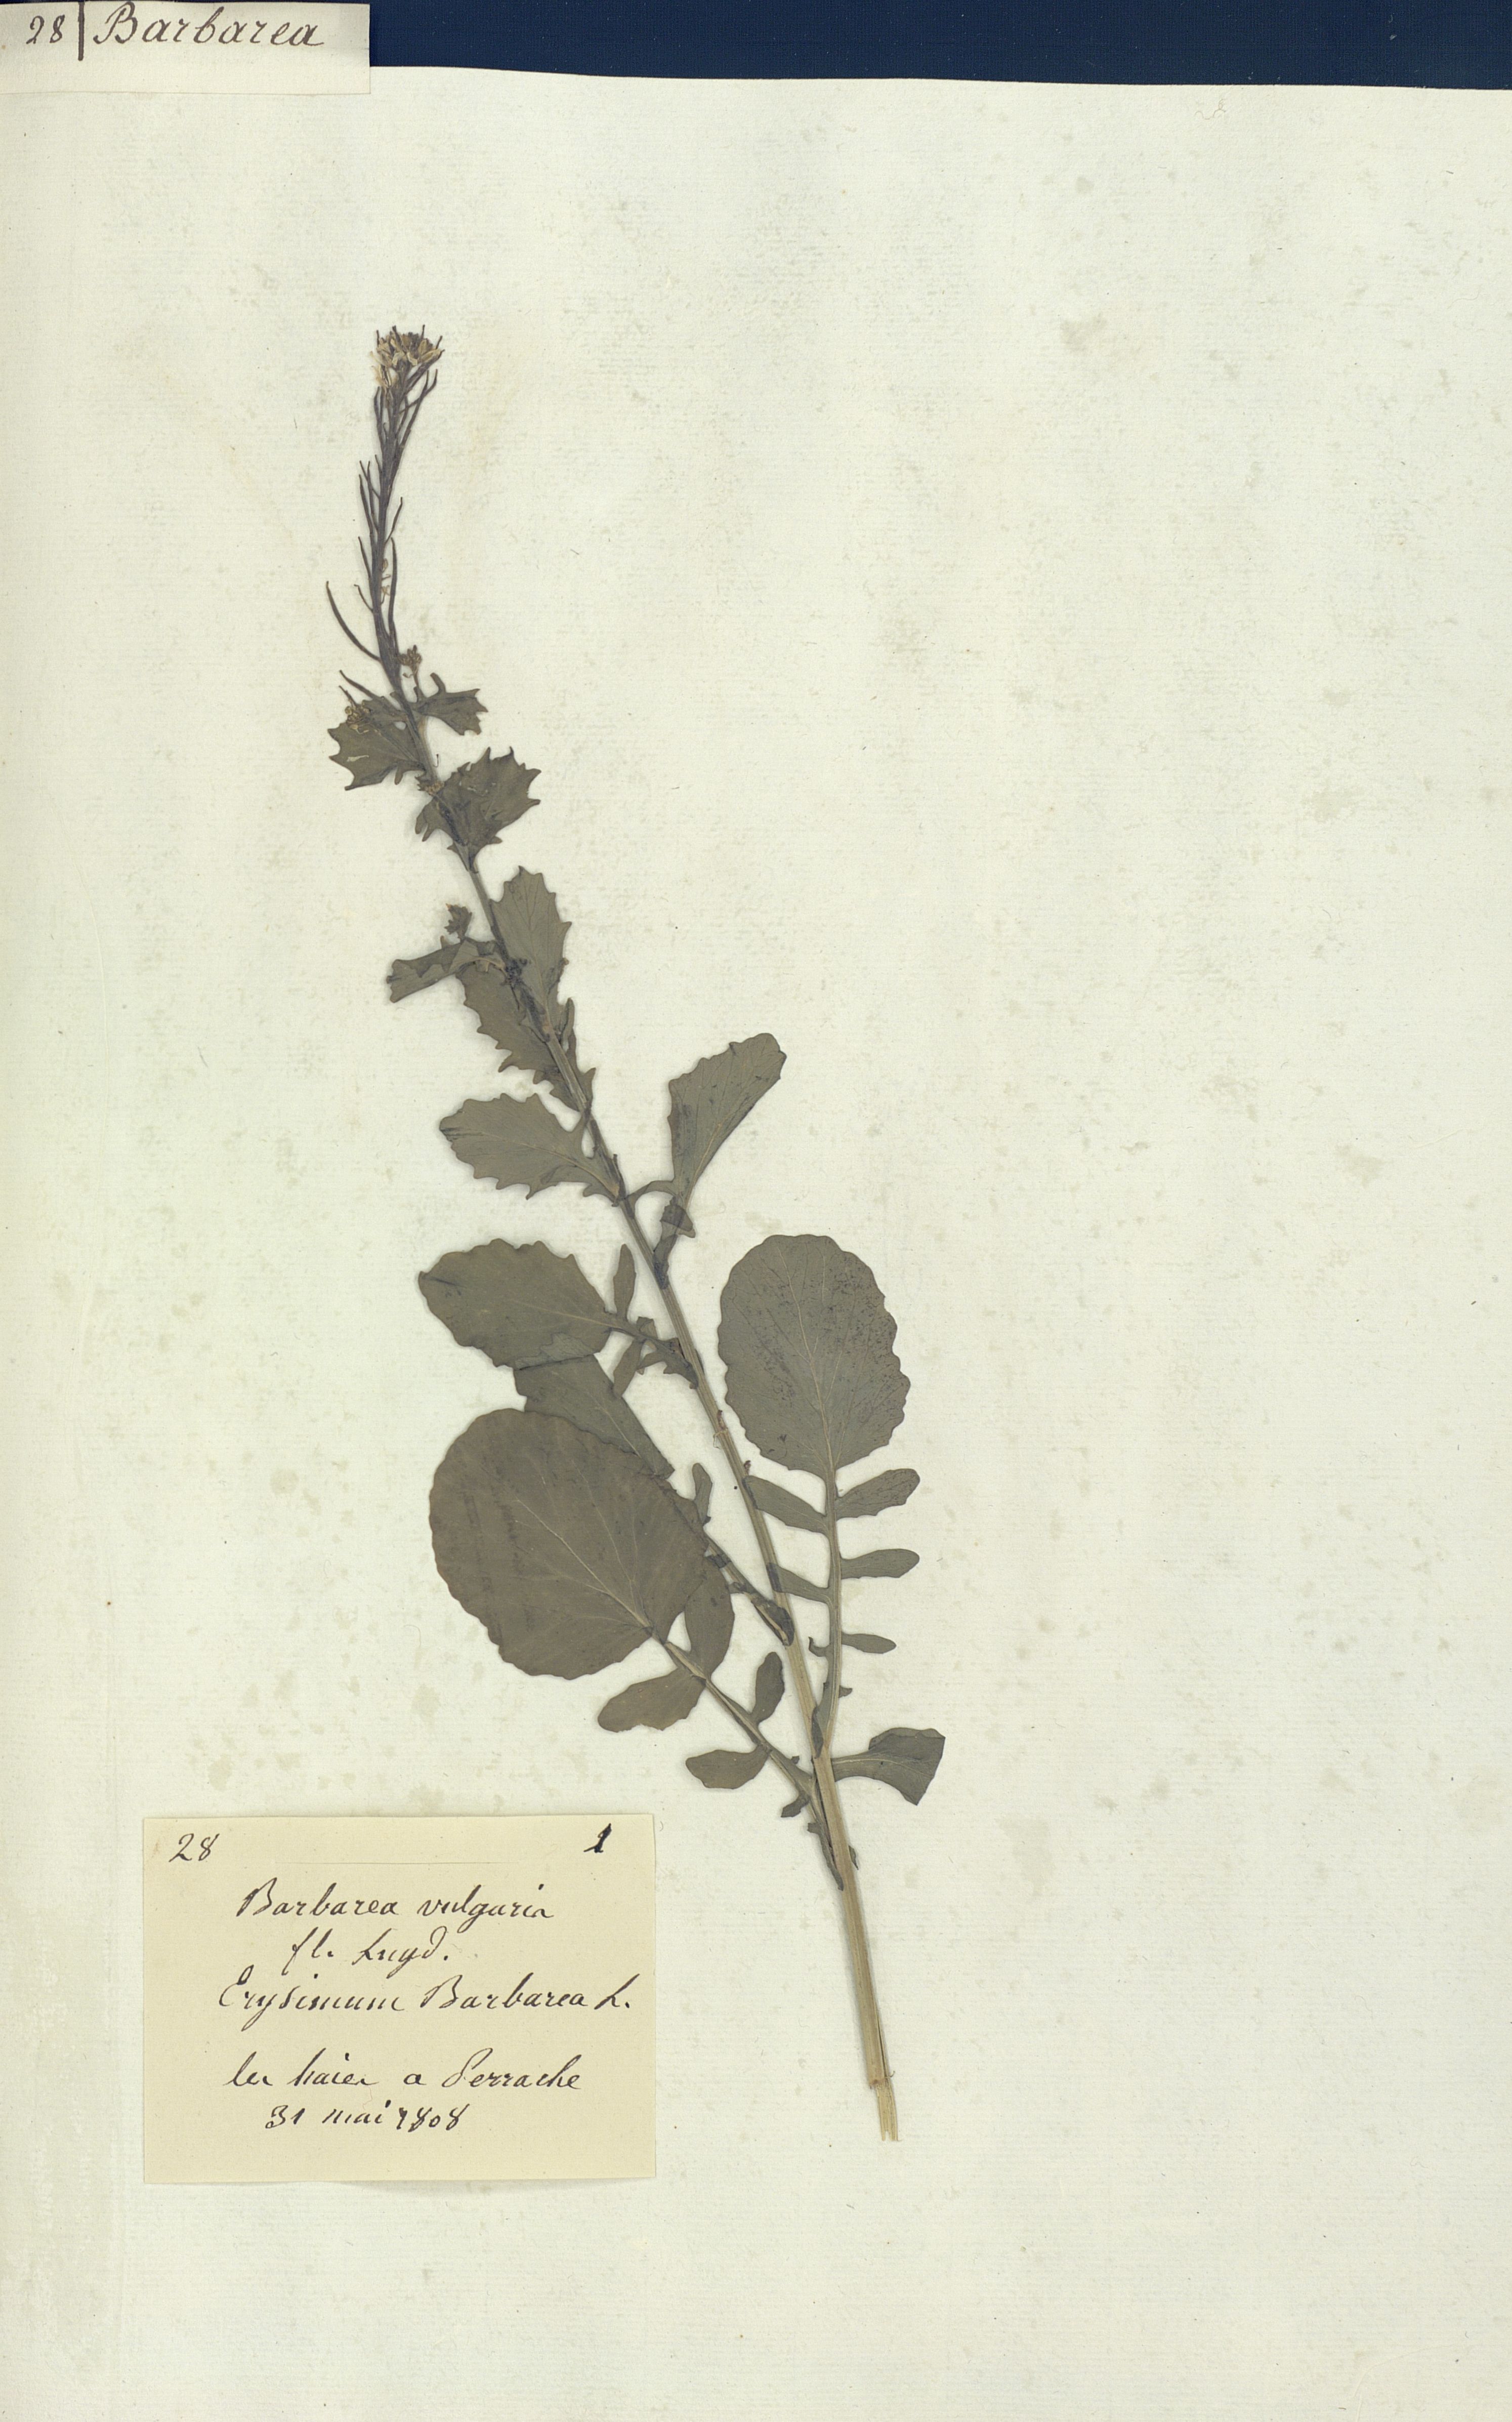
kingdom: Plantae
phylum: Tracheophyta
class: Magnoliopsida
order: Brassicales
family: Brassicaceae
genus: Barbarea
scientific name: Barbarea vulgaris
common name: Cressy-greens
